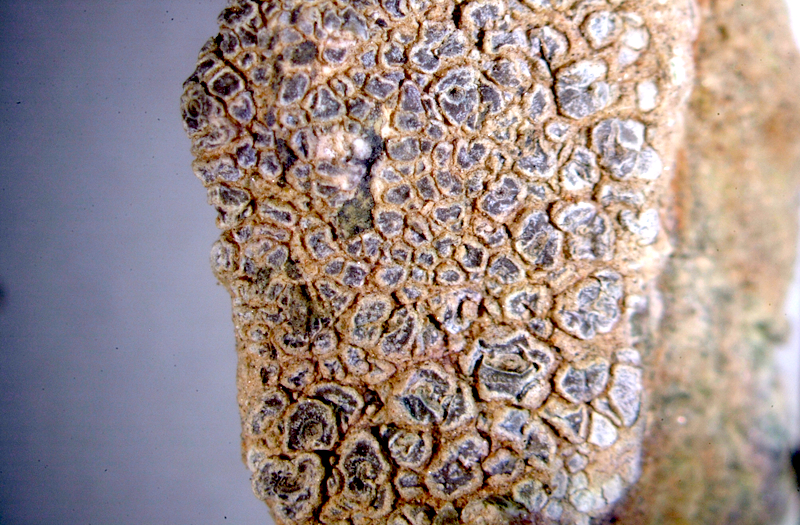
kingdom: Fungi
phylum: Ascomycota
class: Lecanoromycetes
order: Ostropales
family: Graphidaceae
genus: Diploschistes
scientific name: Diploschistes aeneus
